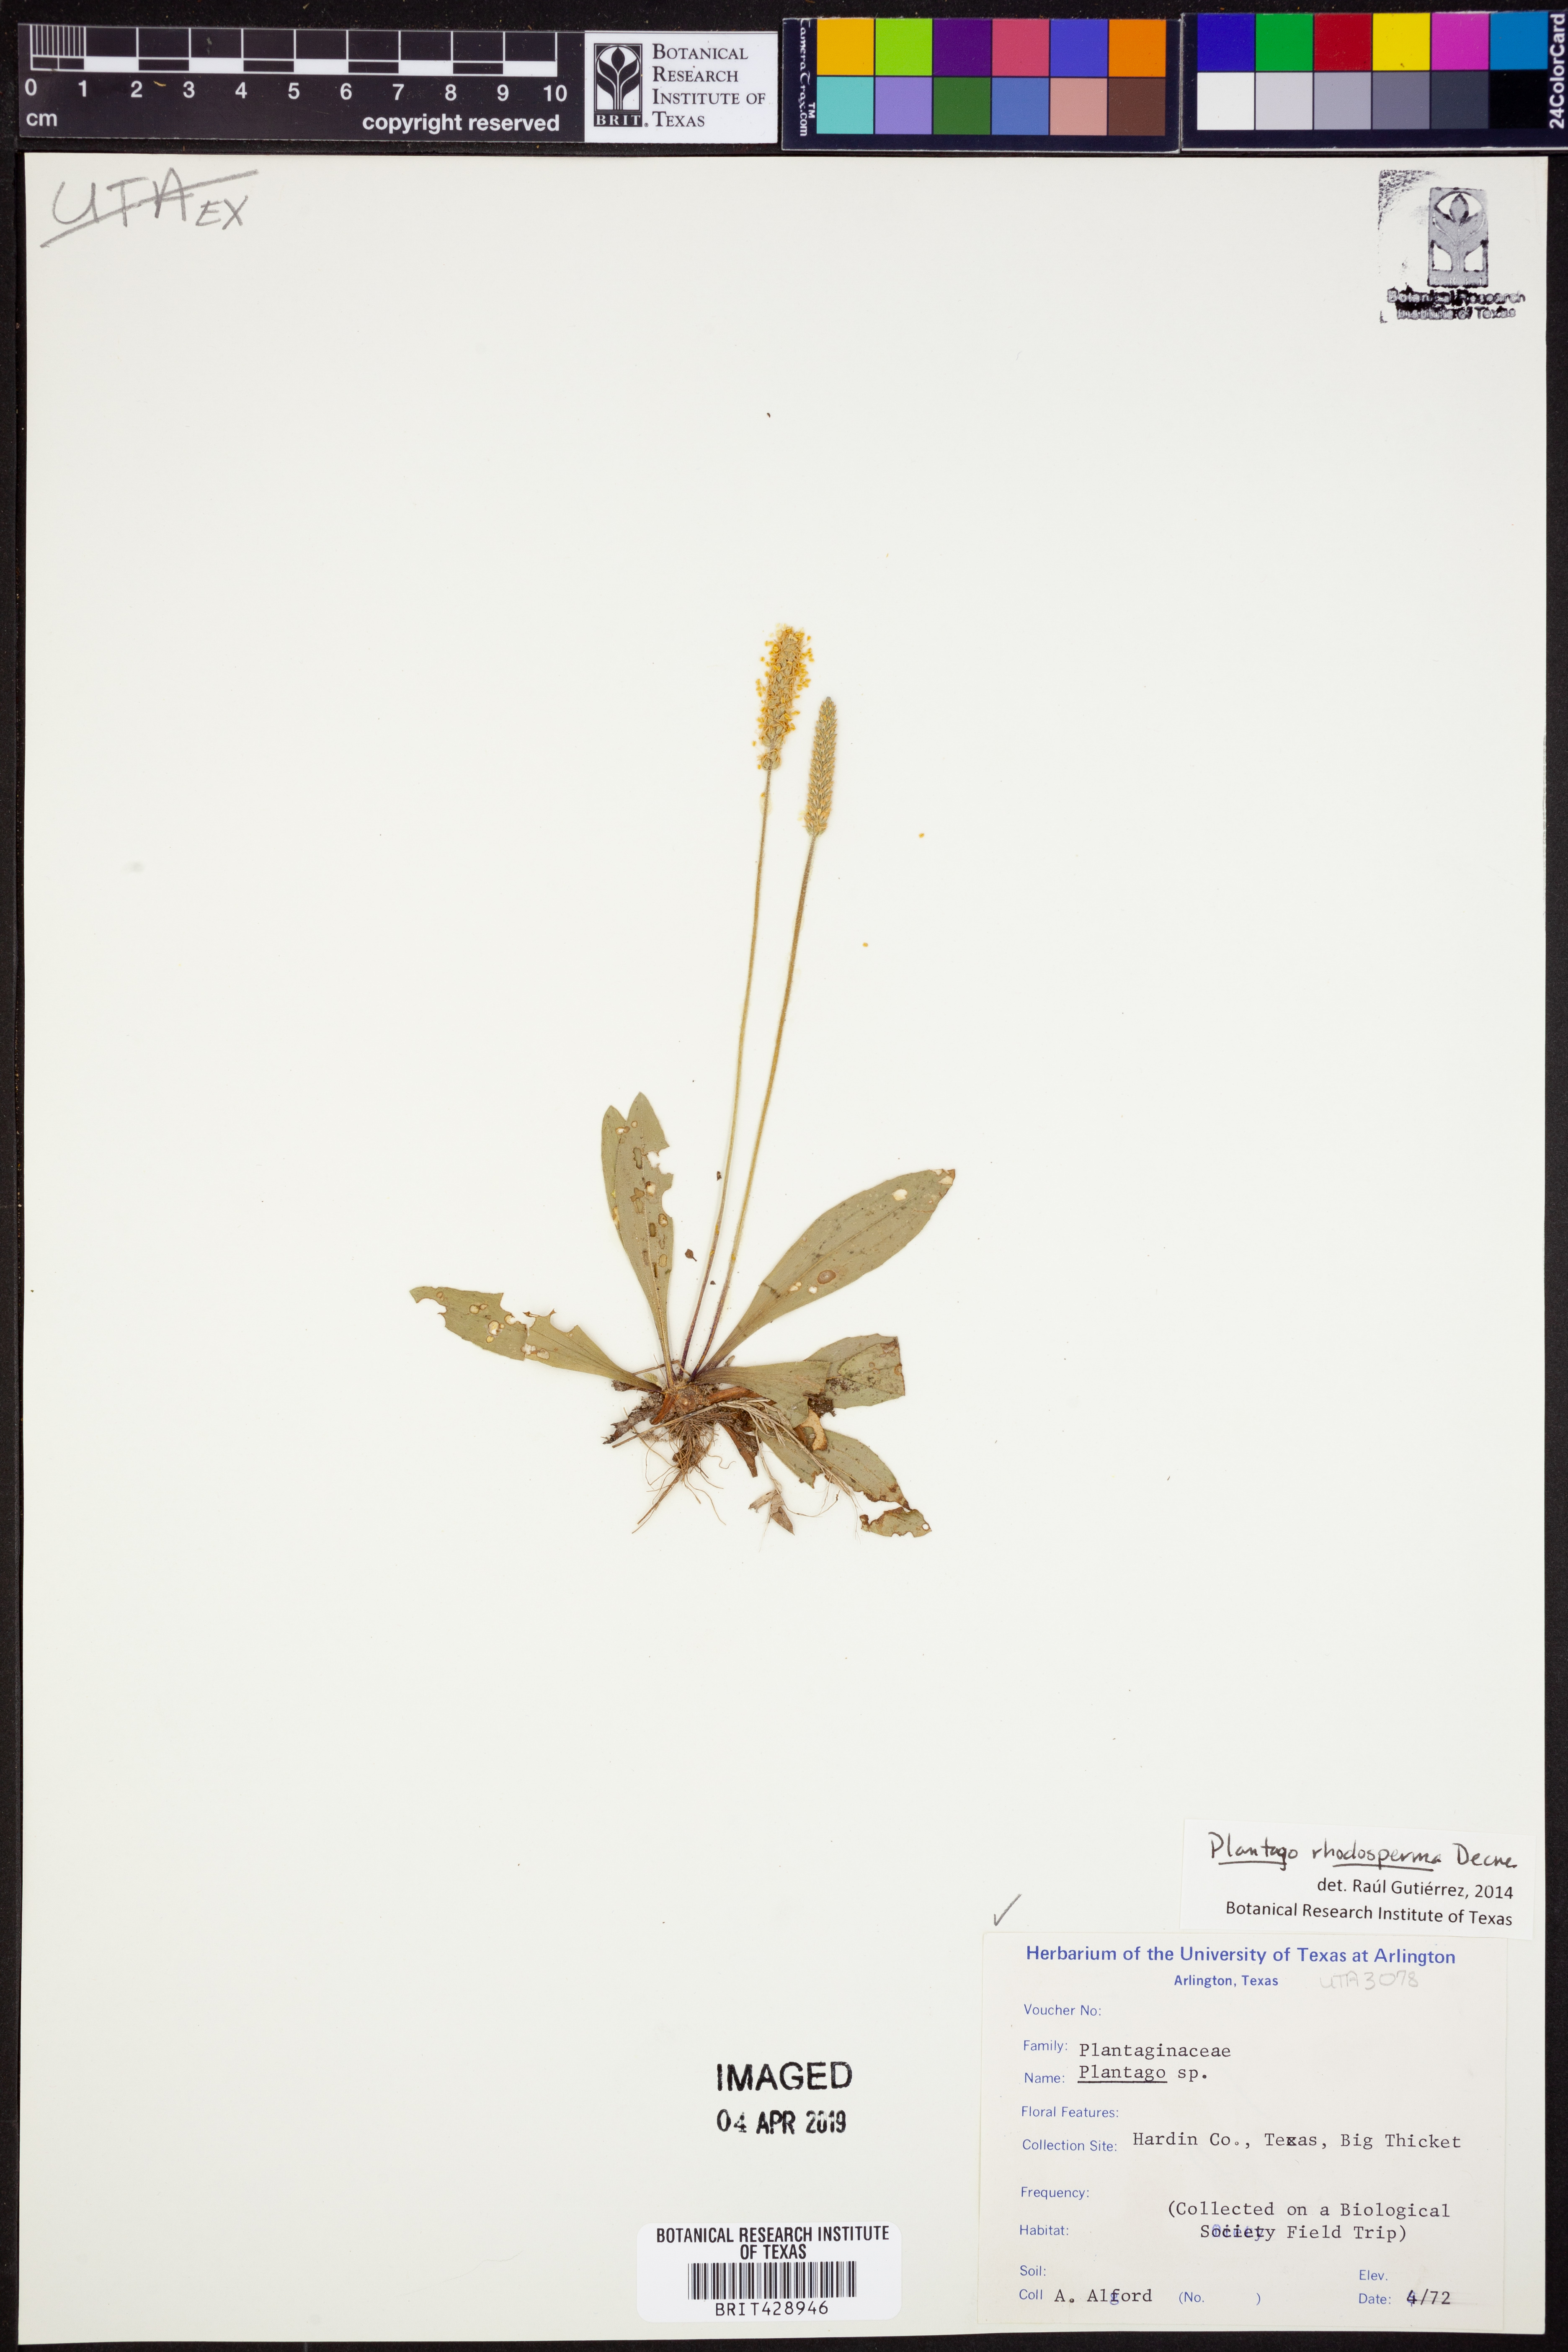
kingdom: Plantae
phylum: Tracheophyta
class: Magnoliopsida
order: Lamiales
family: Plantaginaceae
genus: Plantago
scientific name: Plantago rhodosperma
